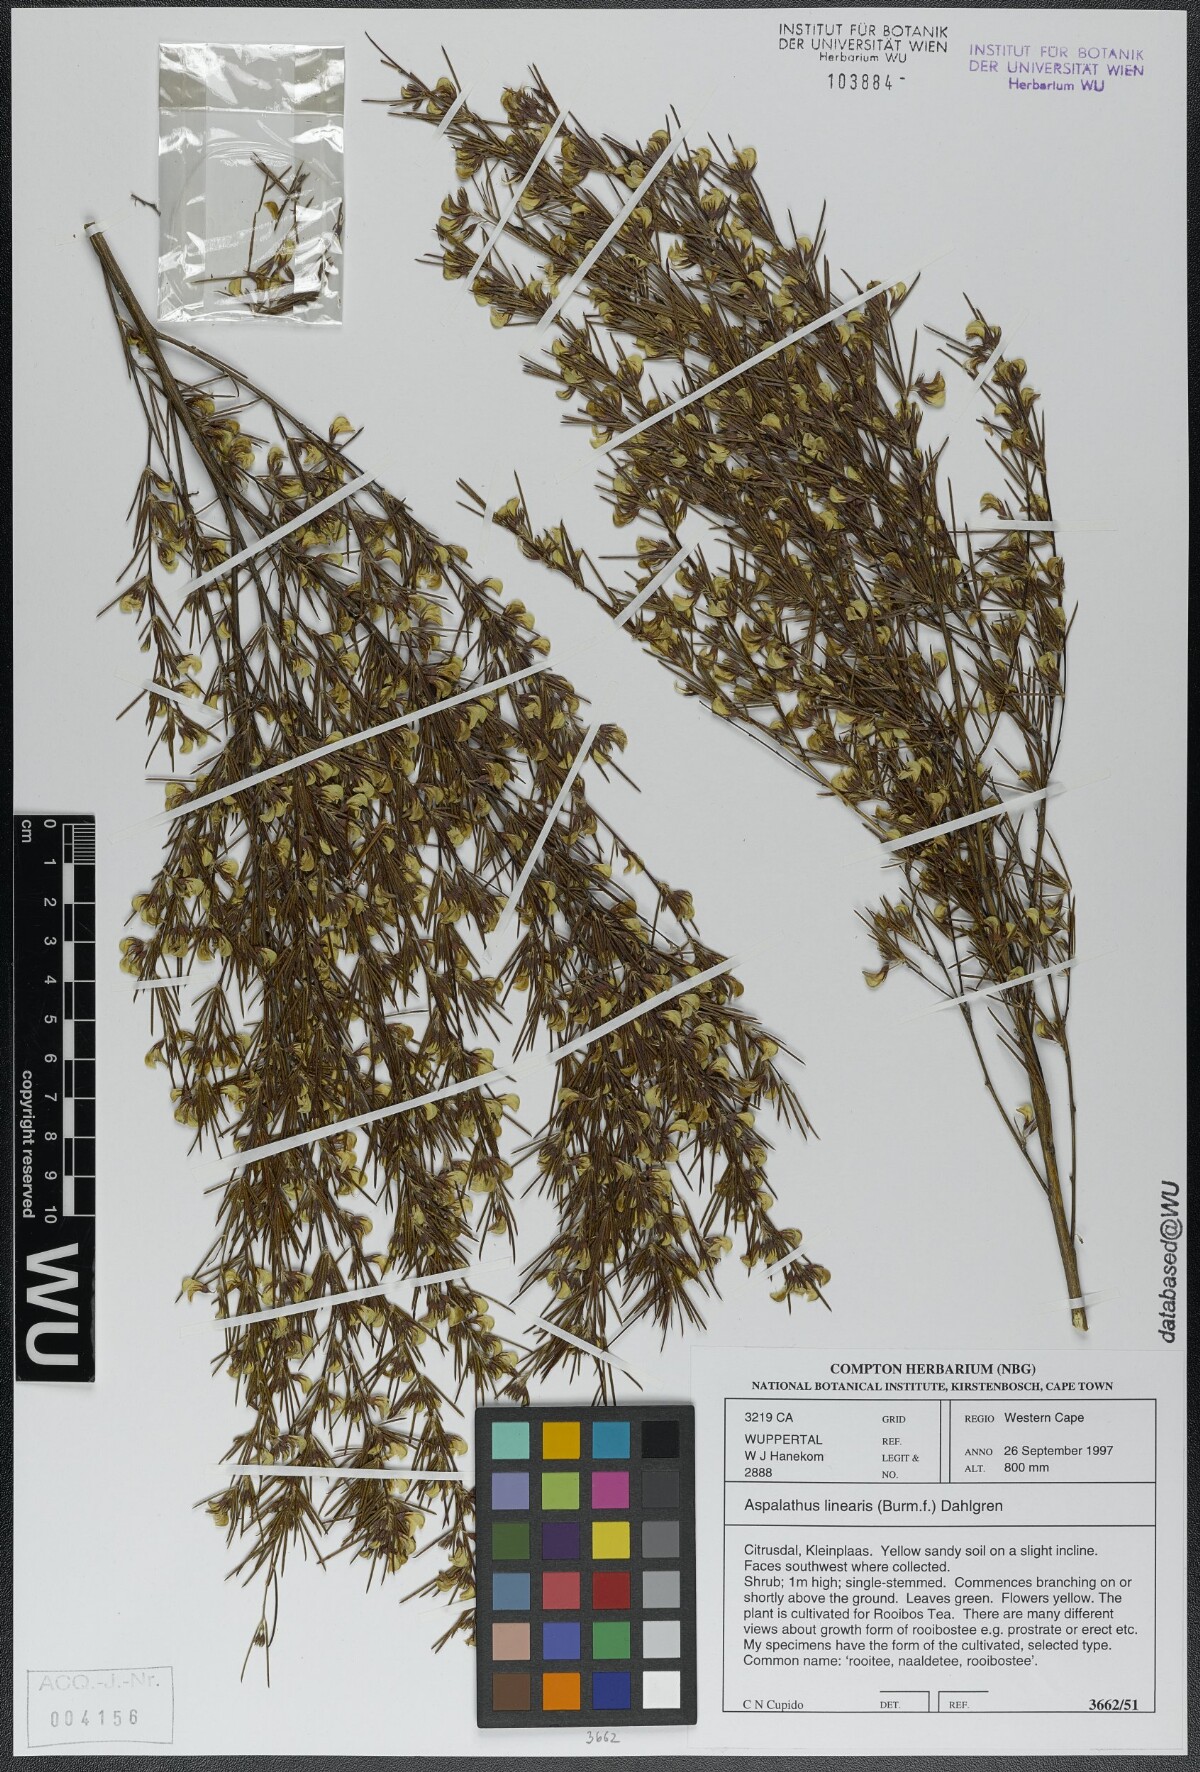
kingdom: Plantae
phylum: Tracheophyta
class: Magnoliopsida
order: Fabales
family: Fabaceae
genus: Aspalathus
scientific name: Aspalathus linearis
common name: Rooibos-tea
